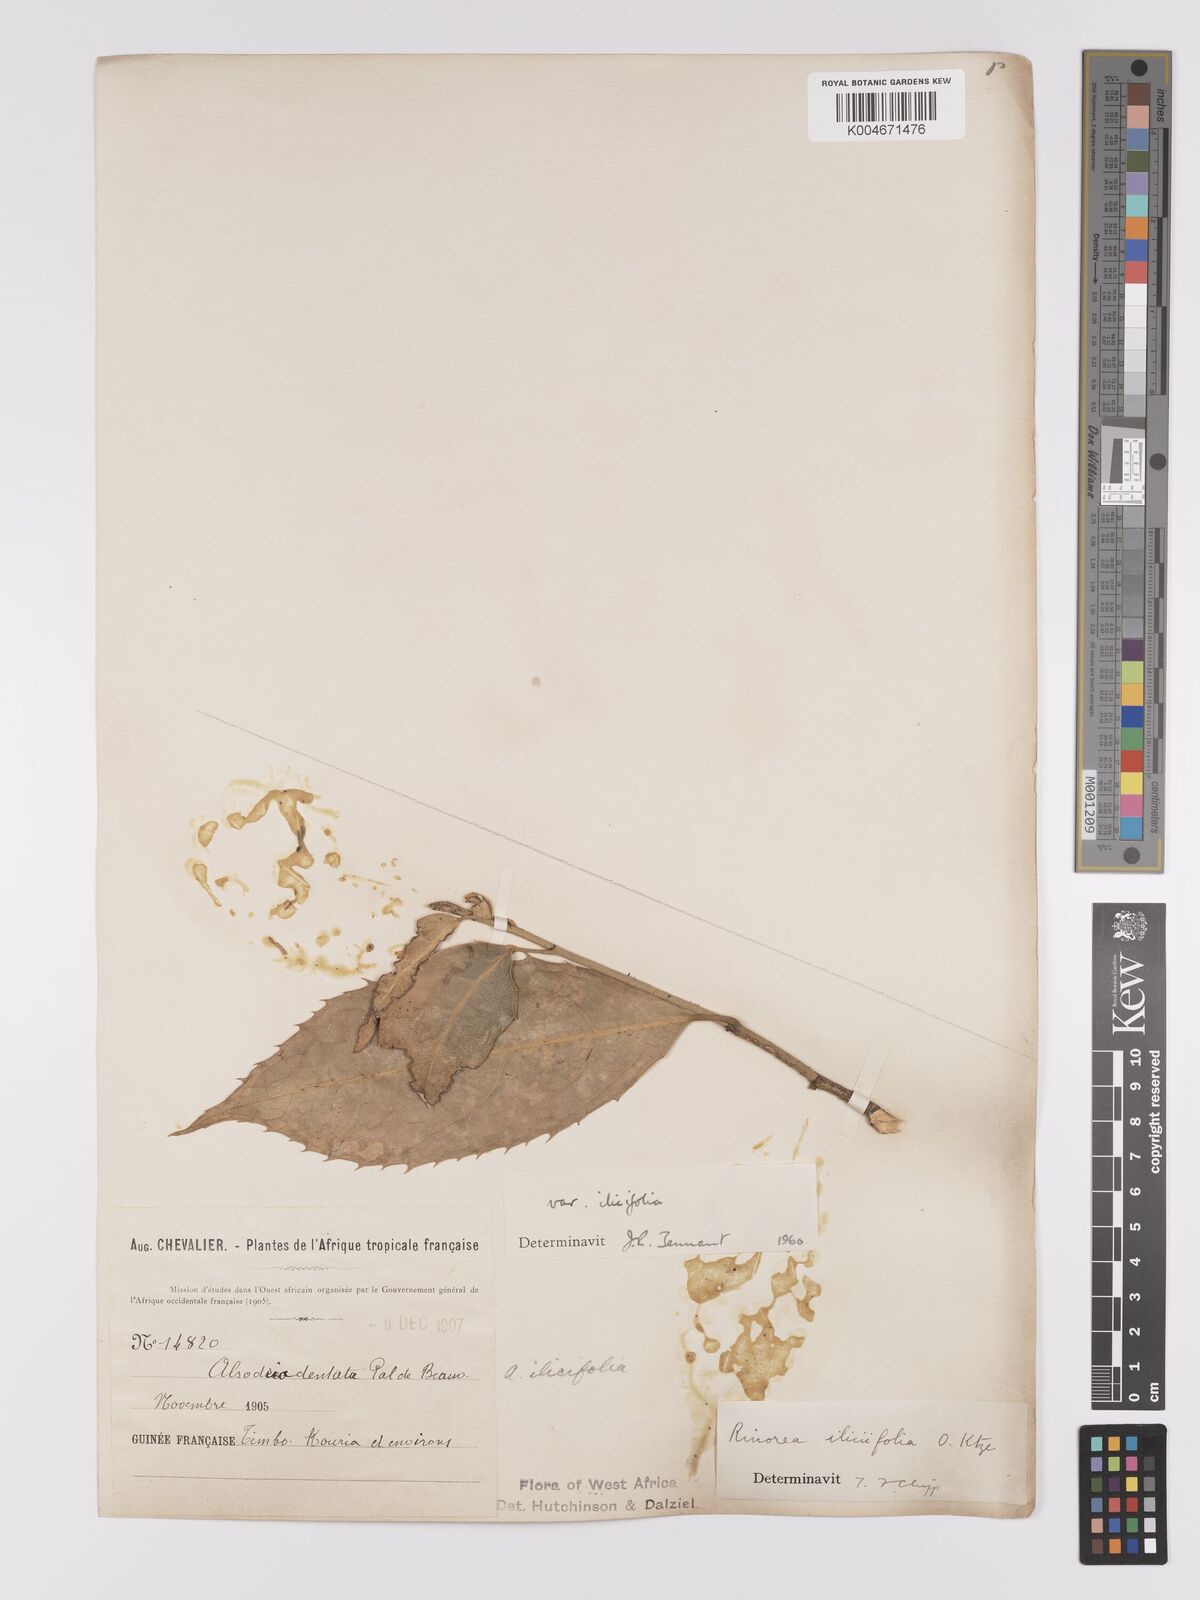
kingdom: Plantae
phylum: Tracheophyta
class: Magnoliopsida
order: Malpighiales
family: Violaceae
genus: Rinorea
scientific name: Rinorea ilicifolia
